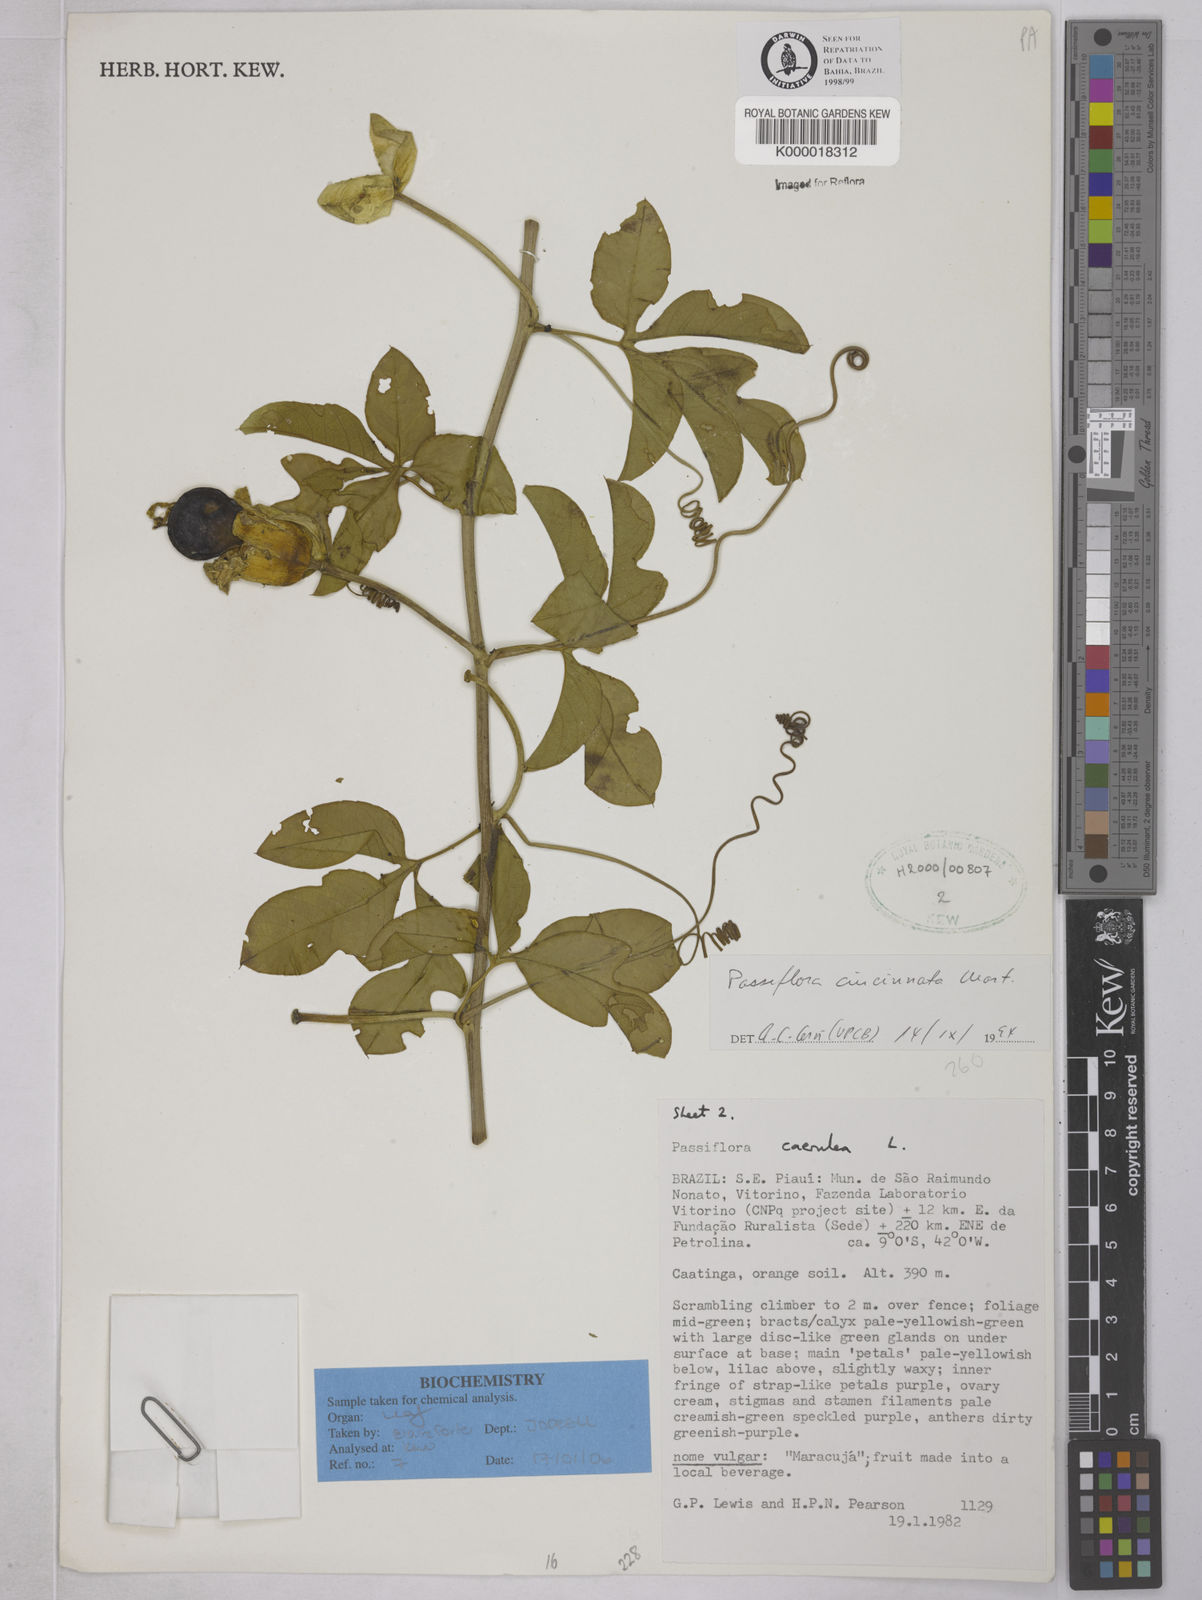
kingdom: Plantae
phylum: Tracheophyta
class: Magnoliopsida
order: Malpighiales
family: Passifloraceae
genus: Passiflora
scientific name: Passiflora cincinnata
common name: Crato passionvine
